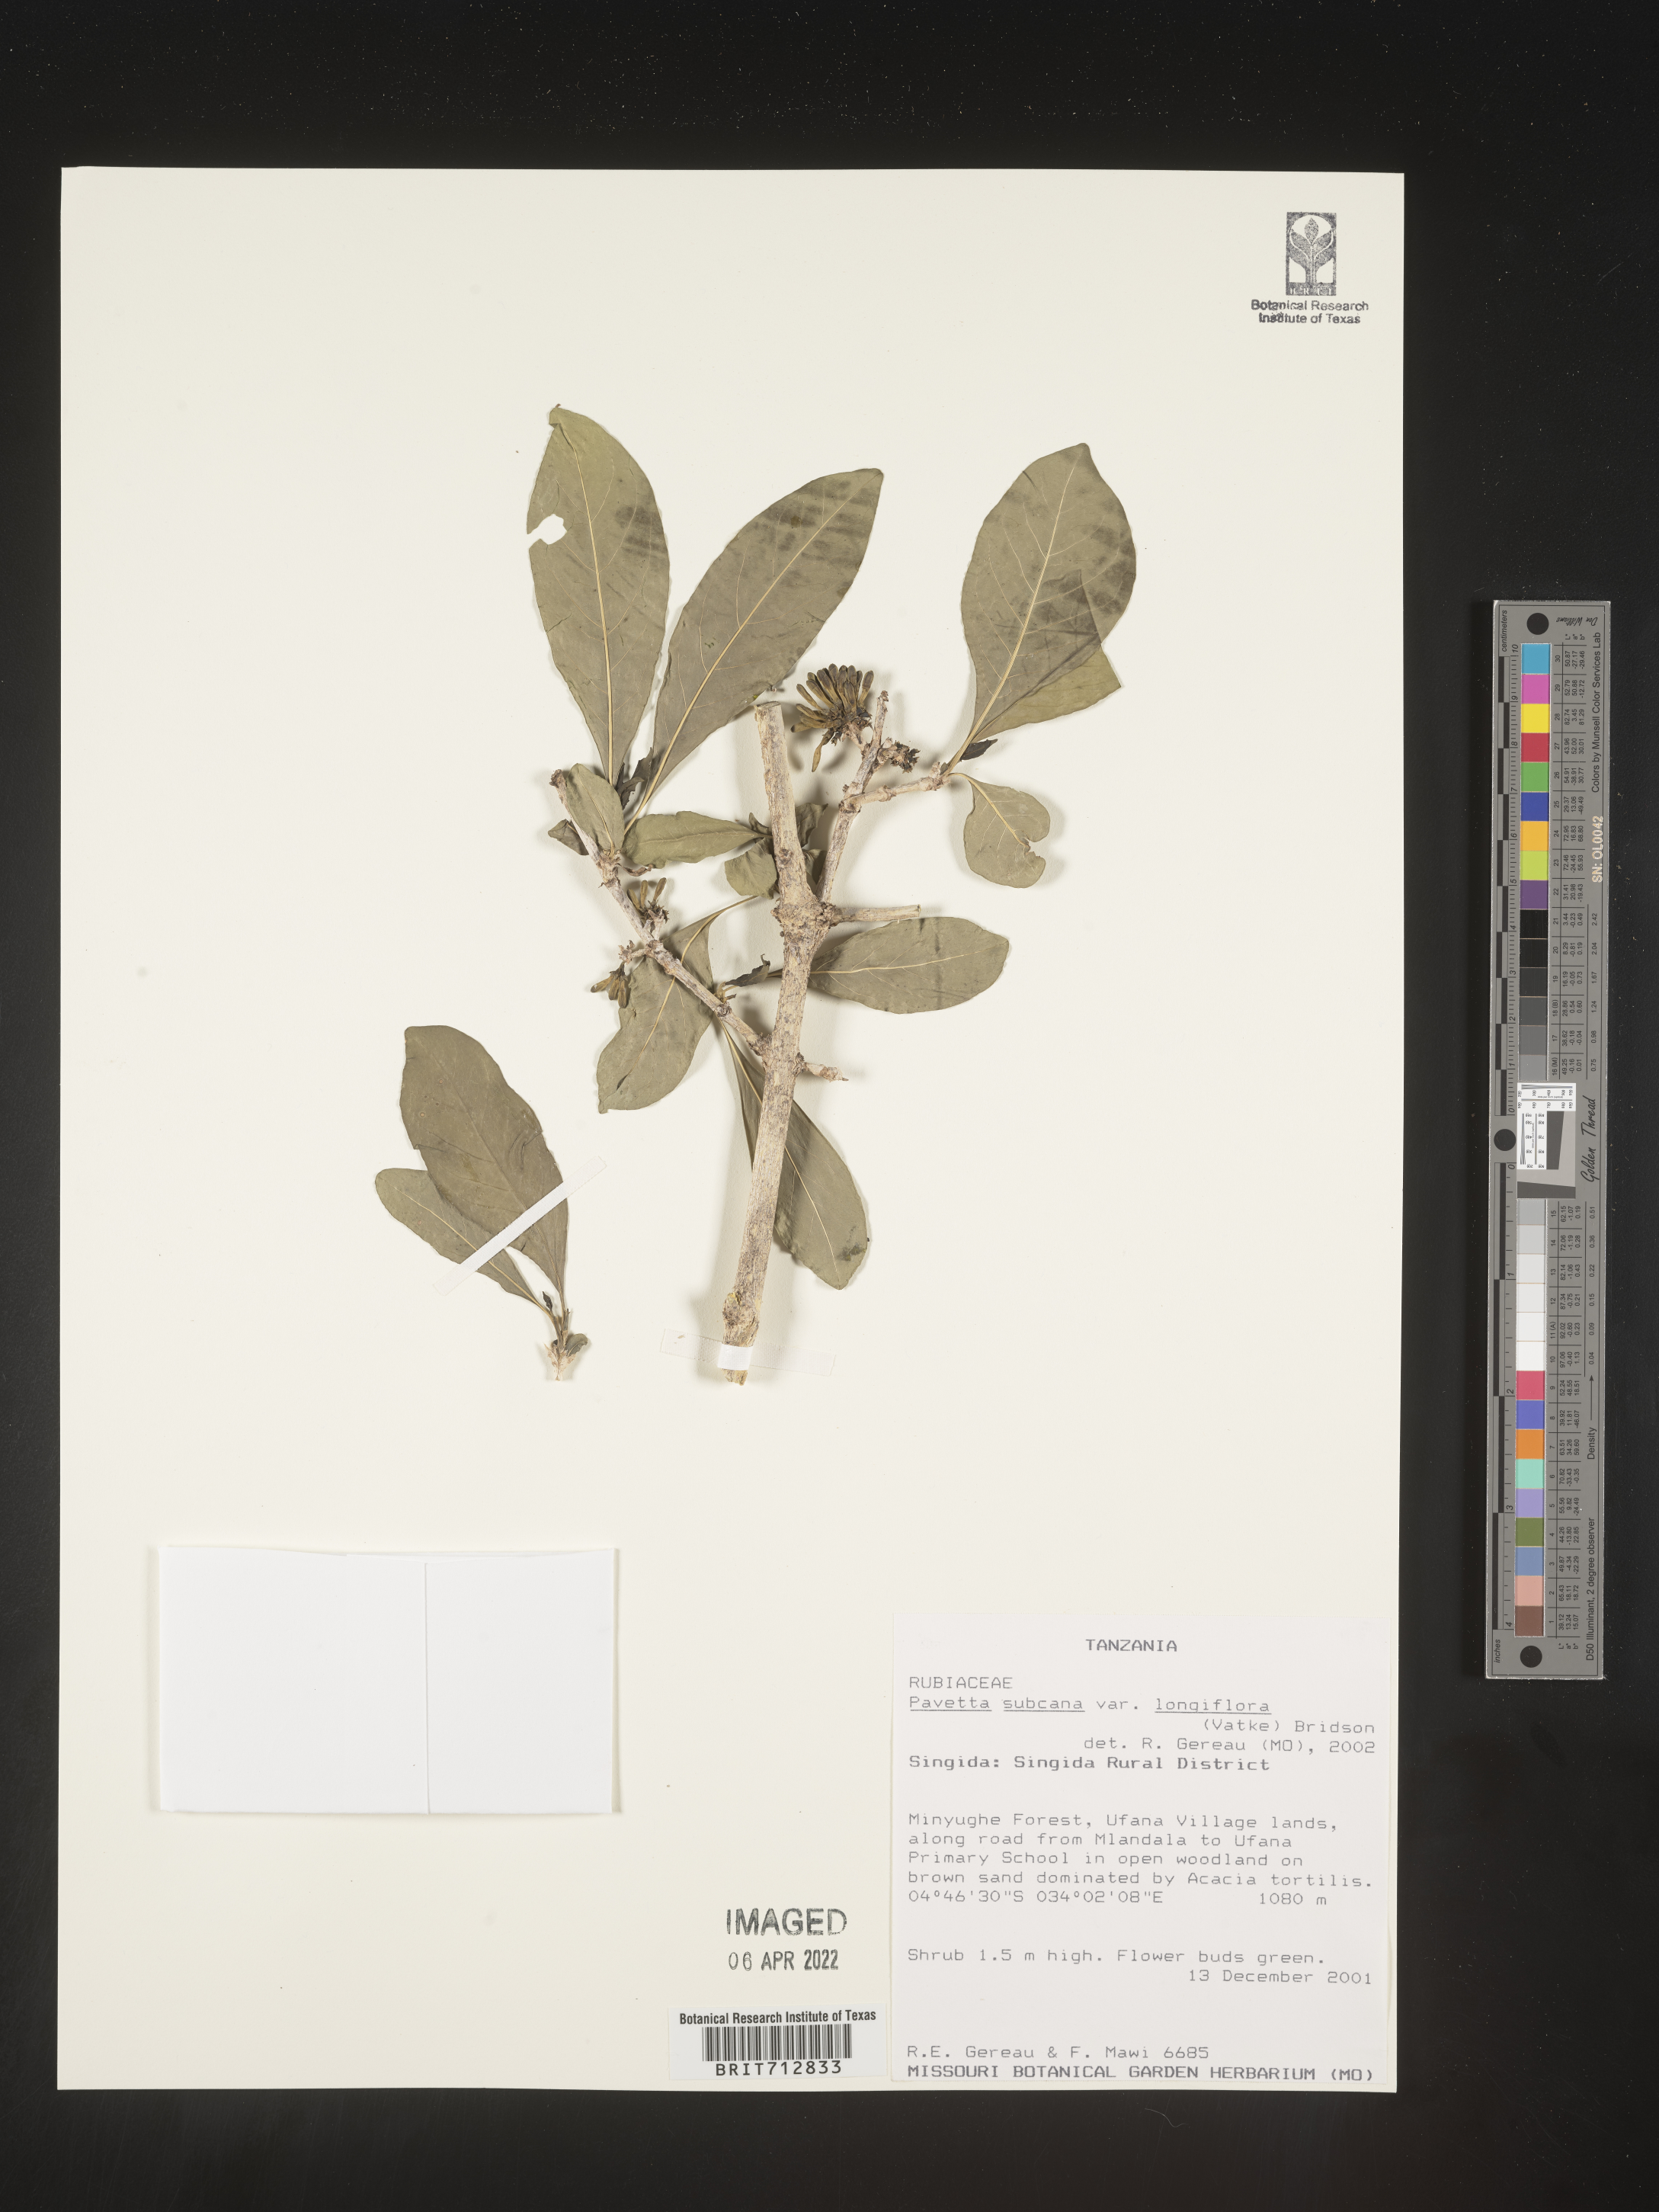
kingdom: Plantae
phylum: Tracheophyta
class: Magnoliopsida
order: Gentianales
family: Rubiaceae
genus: Pavetta
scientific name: Pavetta
